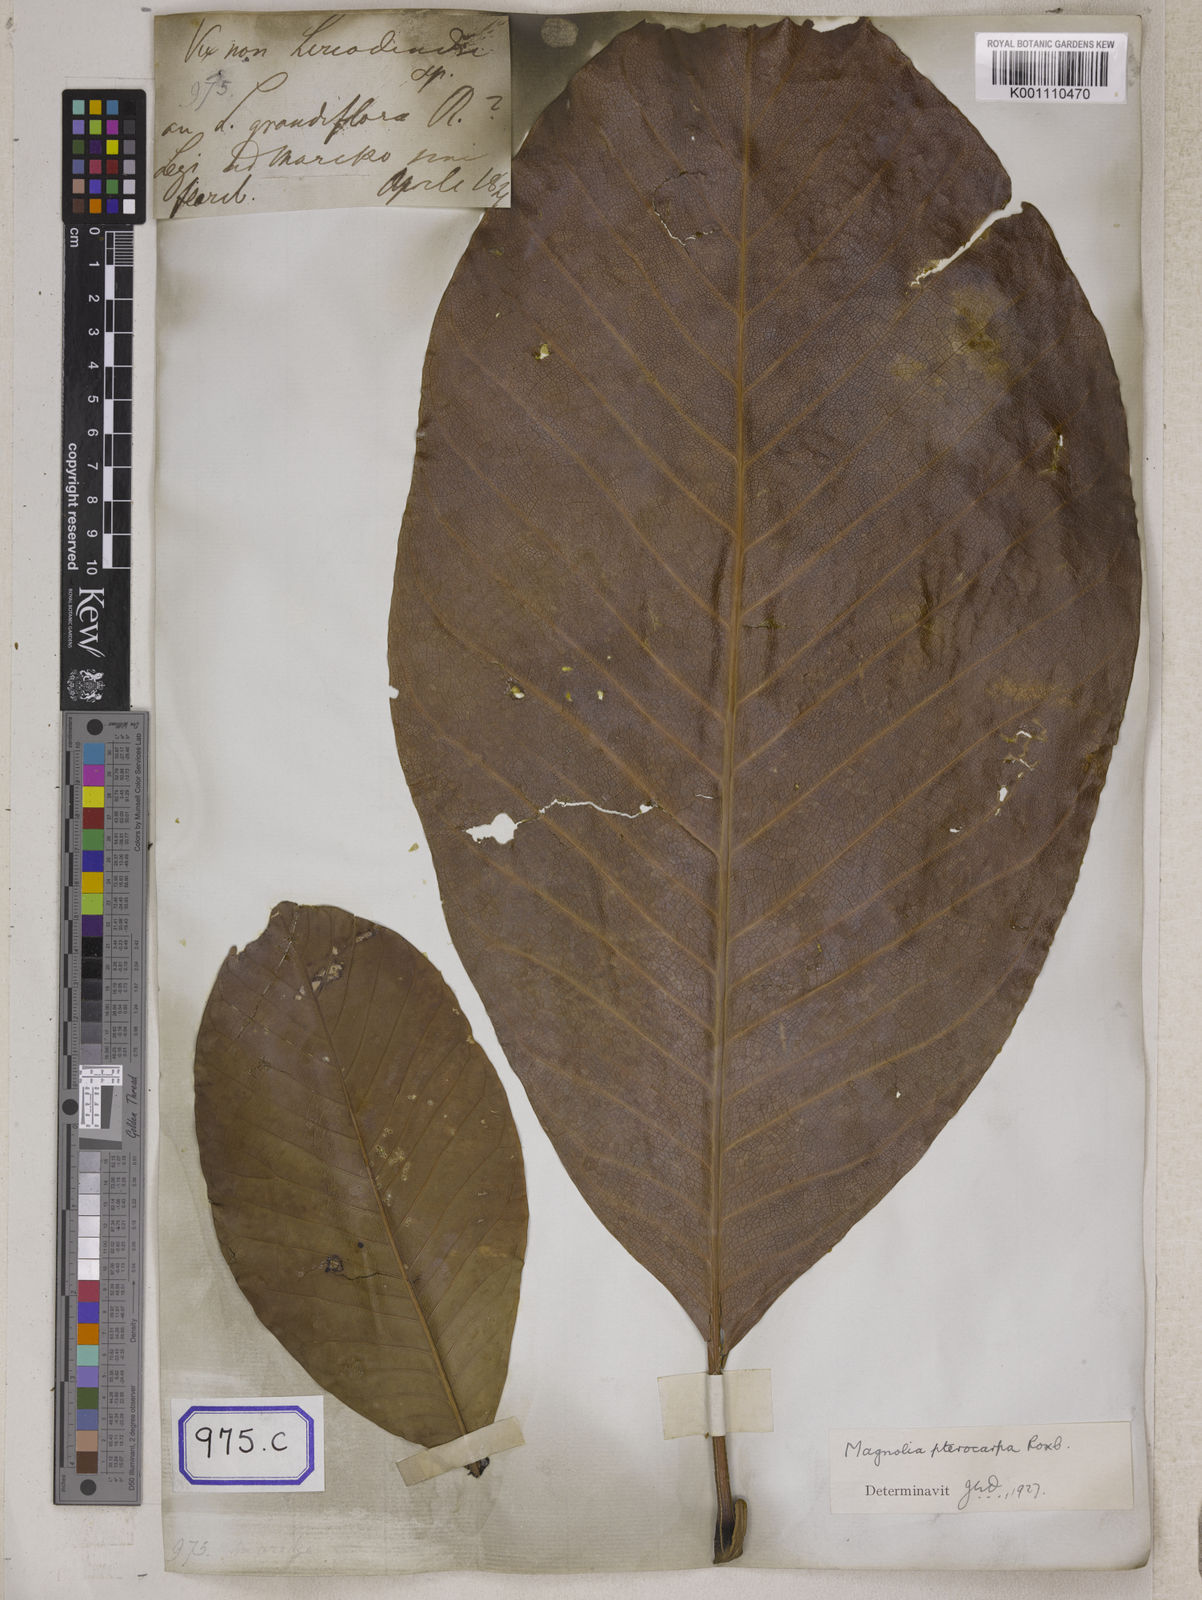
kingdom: Plantae
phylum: Tracheophyta
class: Magnoliopsida
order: Magnoliales
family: Magnoliaceae
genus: Magnolia
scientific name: Magnolia
